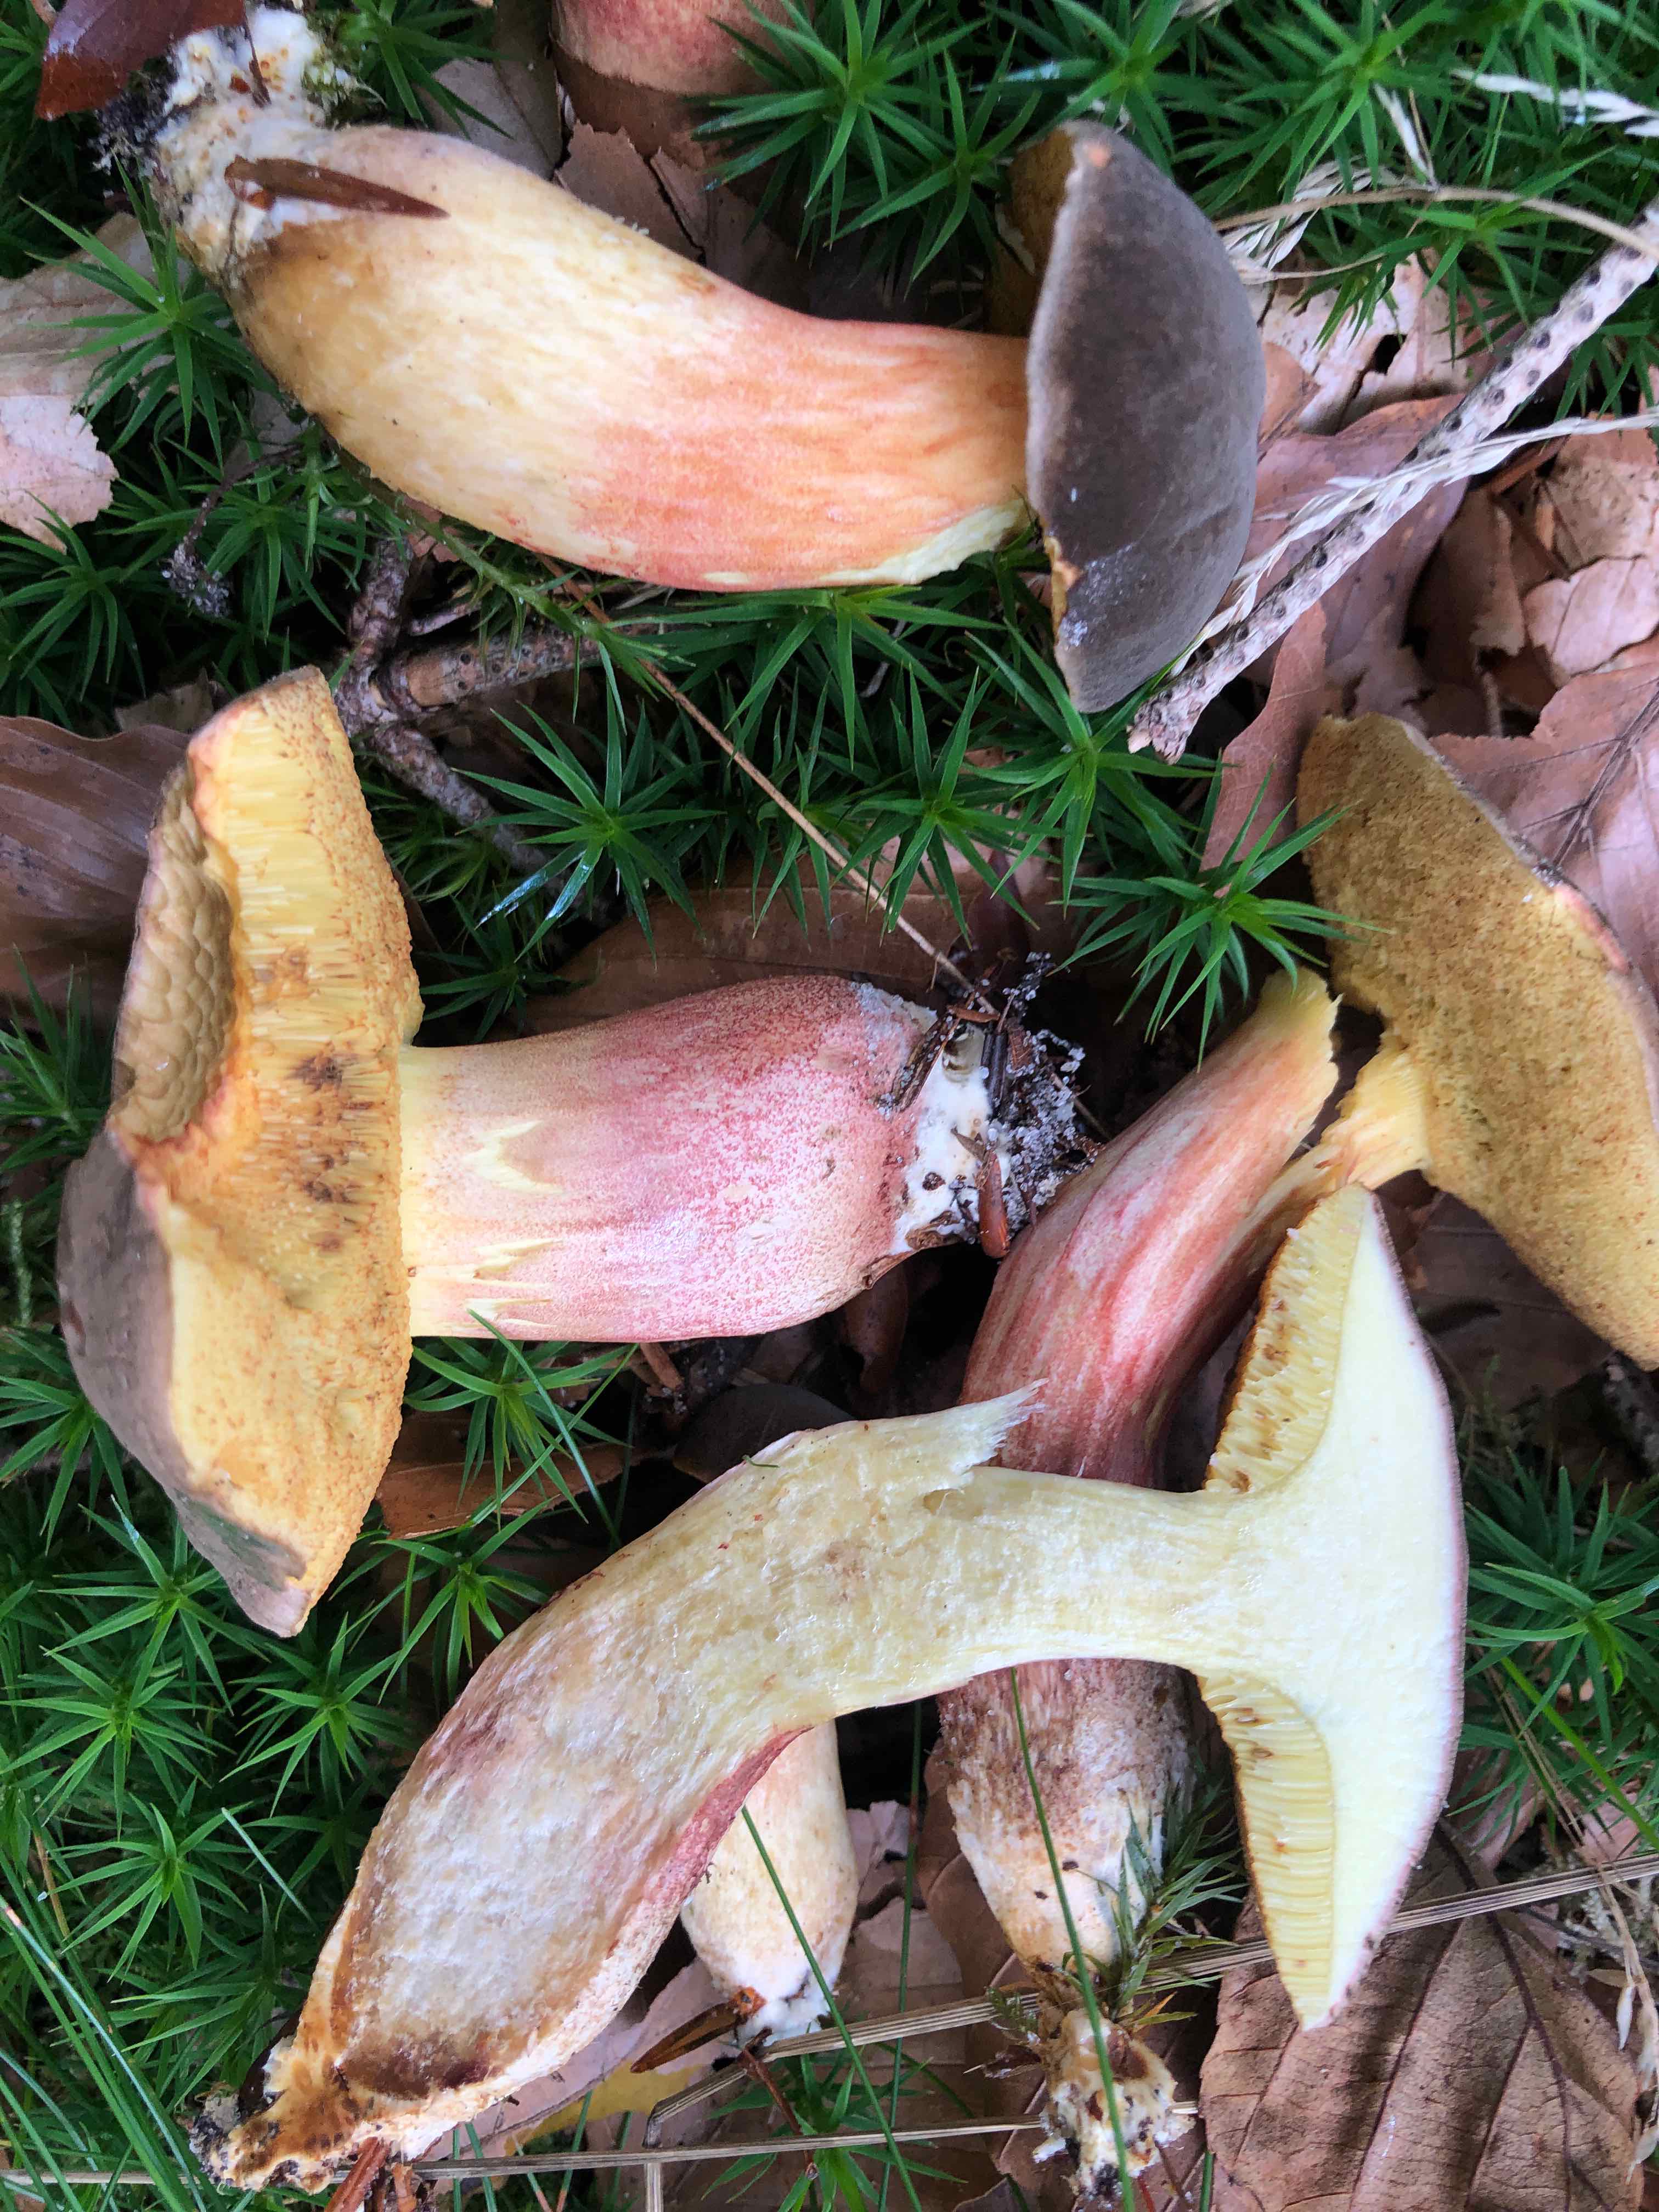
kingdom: Fungi
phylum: Basidiomycota
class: Agaricomycetes
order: Boletales
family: Boletaceae
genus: Xerocomellus
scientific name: Xerocomellus chrysenteron
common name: rødsprukken rørhat
